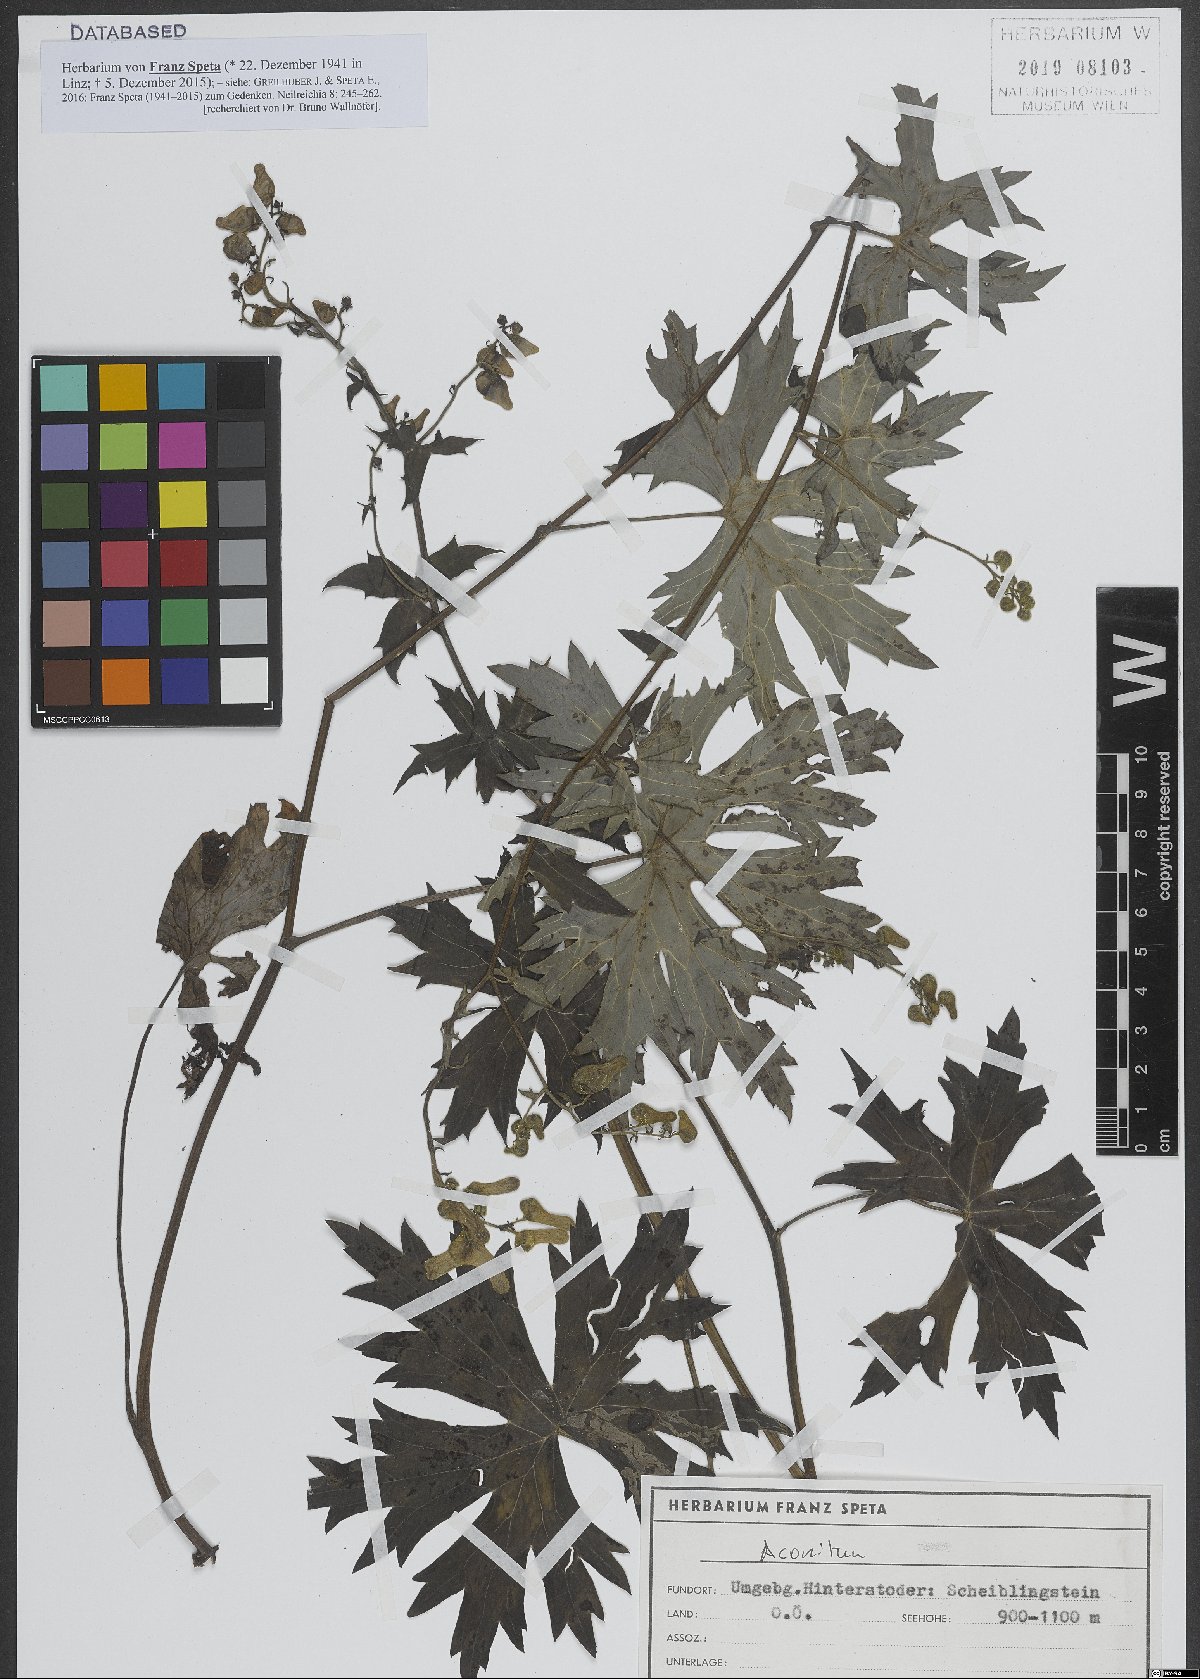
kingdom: Plantae
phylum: Tracheophyta
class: Magnoliopsida
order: Ranunculales
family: Ranunculaceae
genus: Aconitum
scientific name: Aconitum
